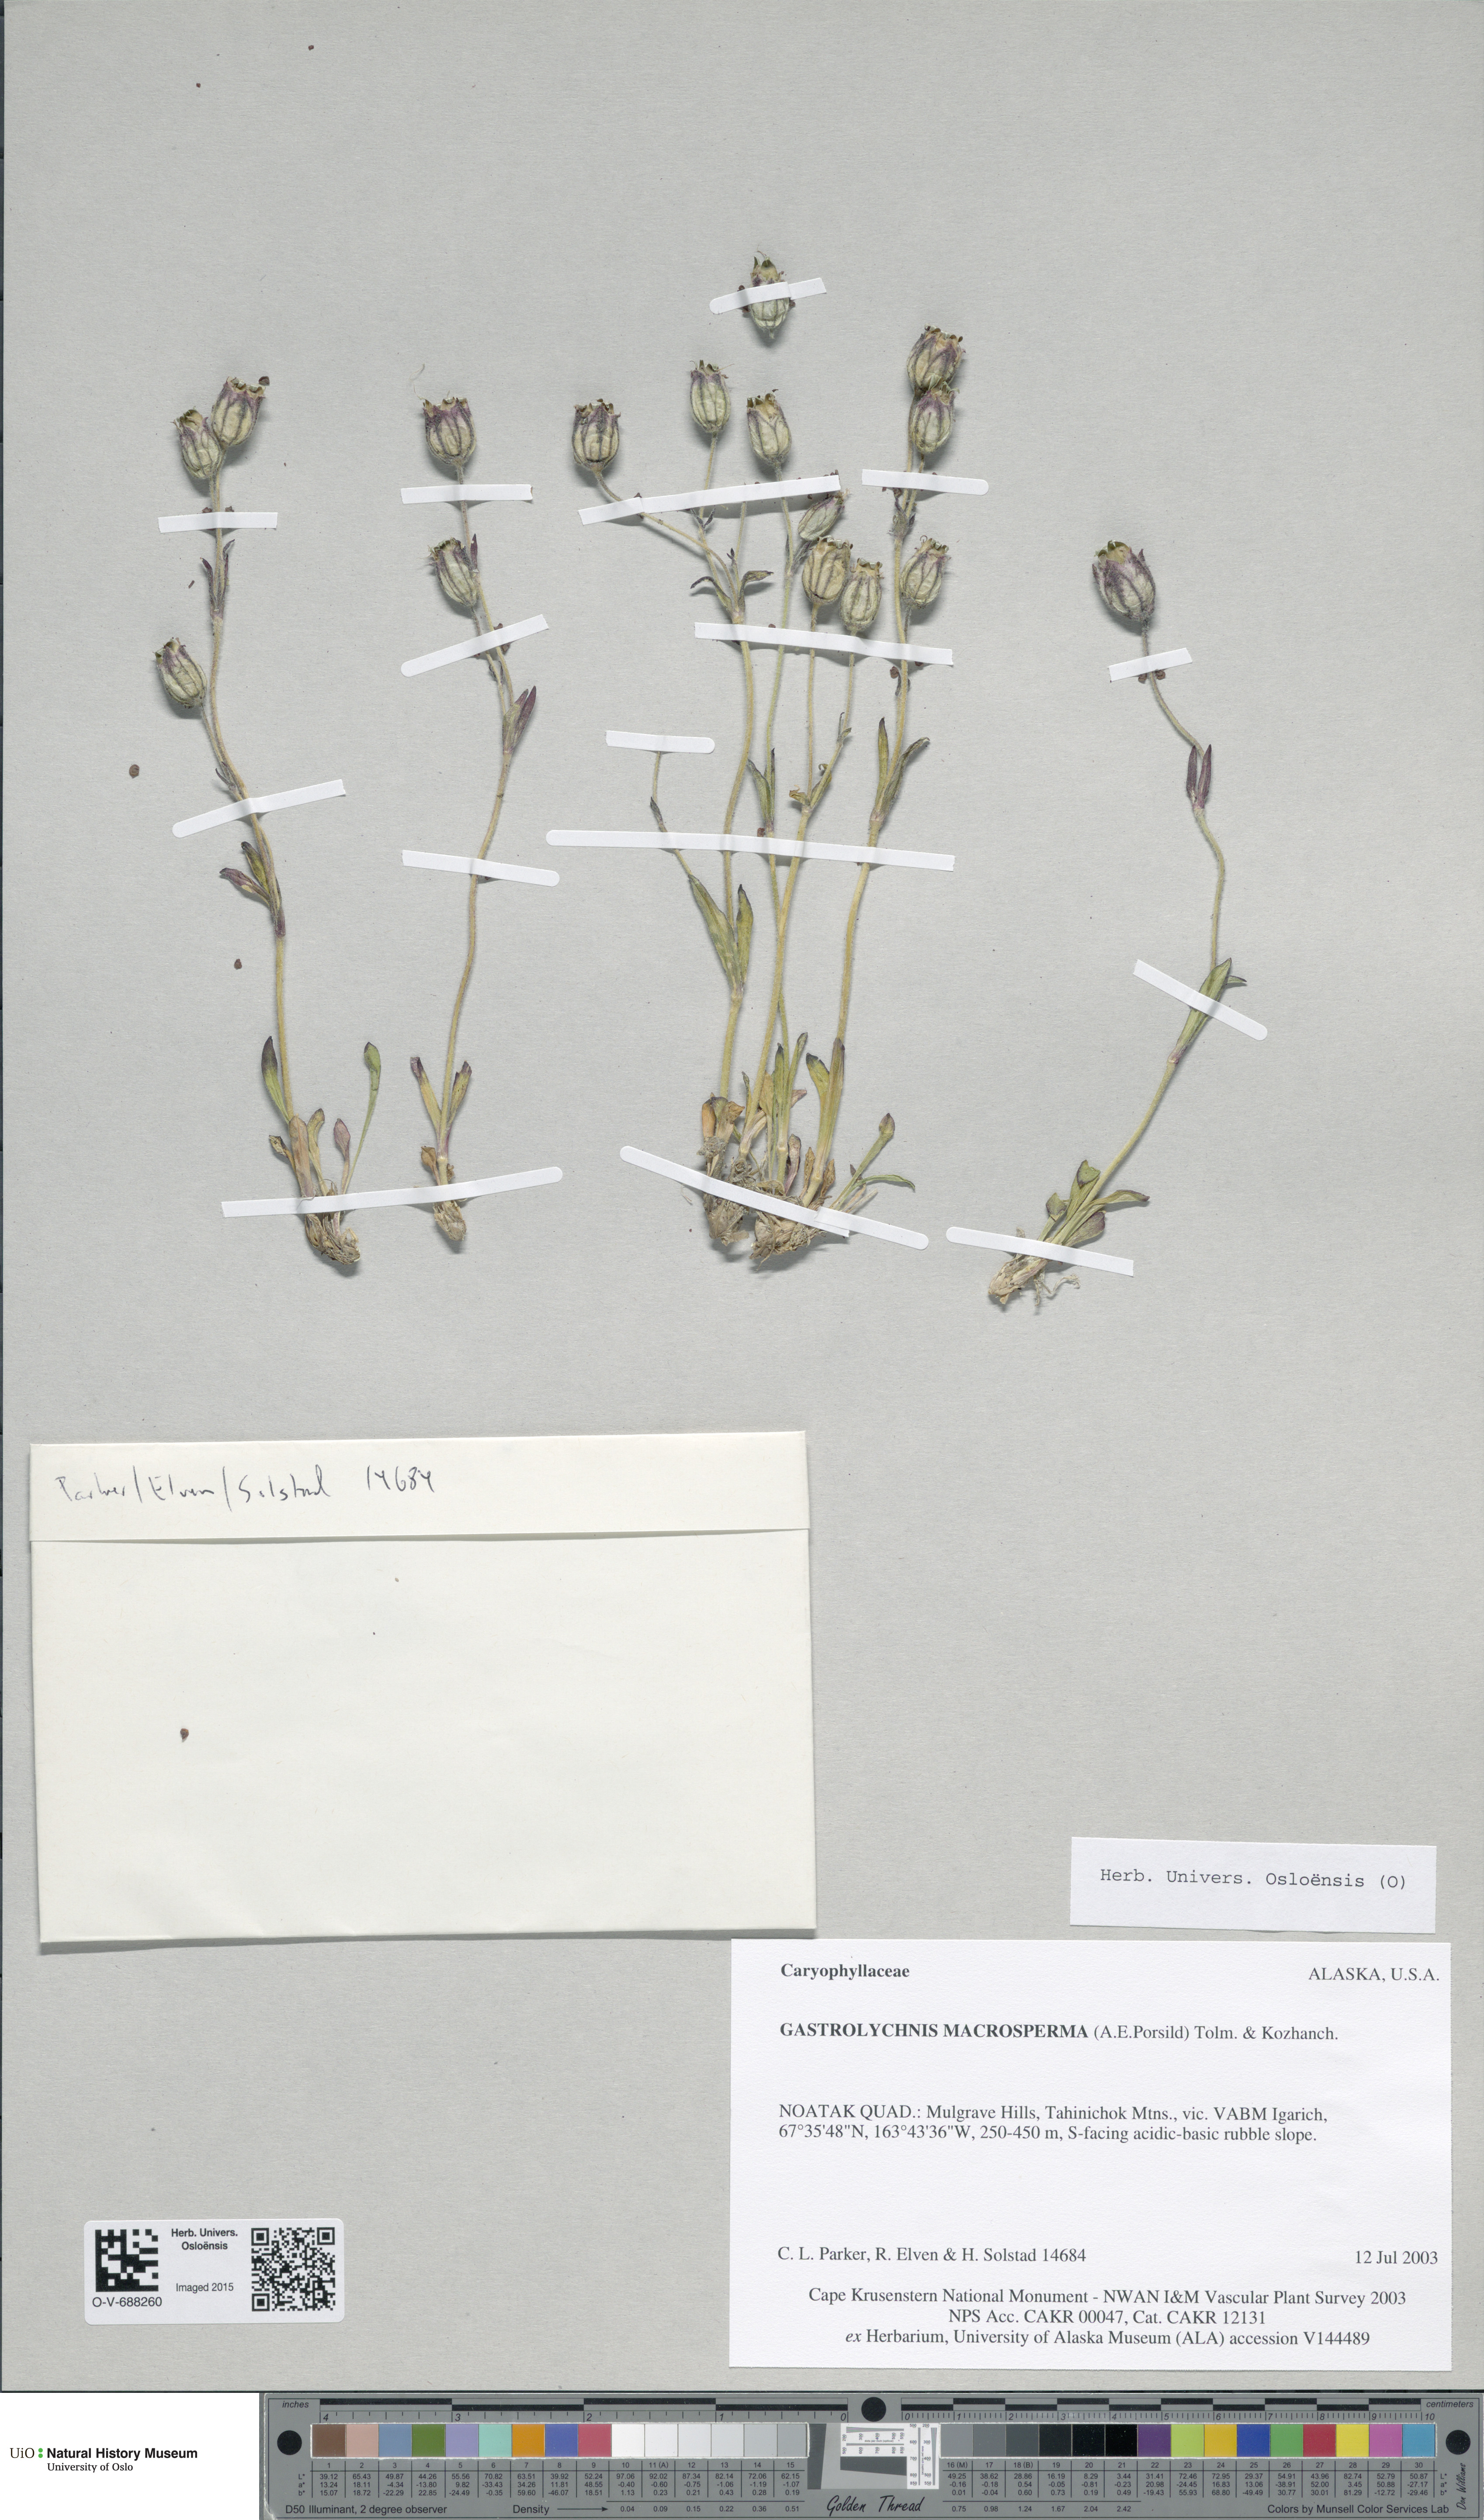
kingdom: Plantae
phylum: Tracheophyta
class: Magnoliopsida
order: Caryophyllales
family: Caryophyllaceae
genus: Silene
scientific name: Silene uralensis
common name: Nodding campion
